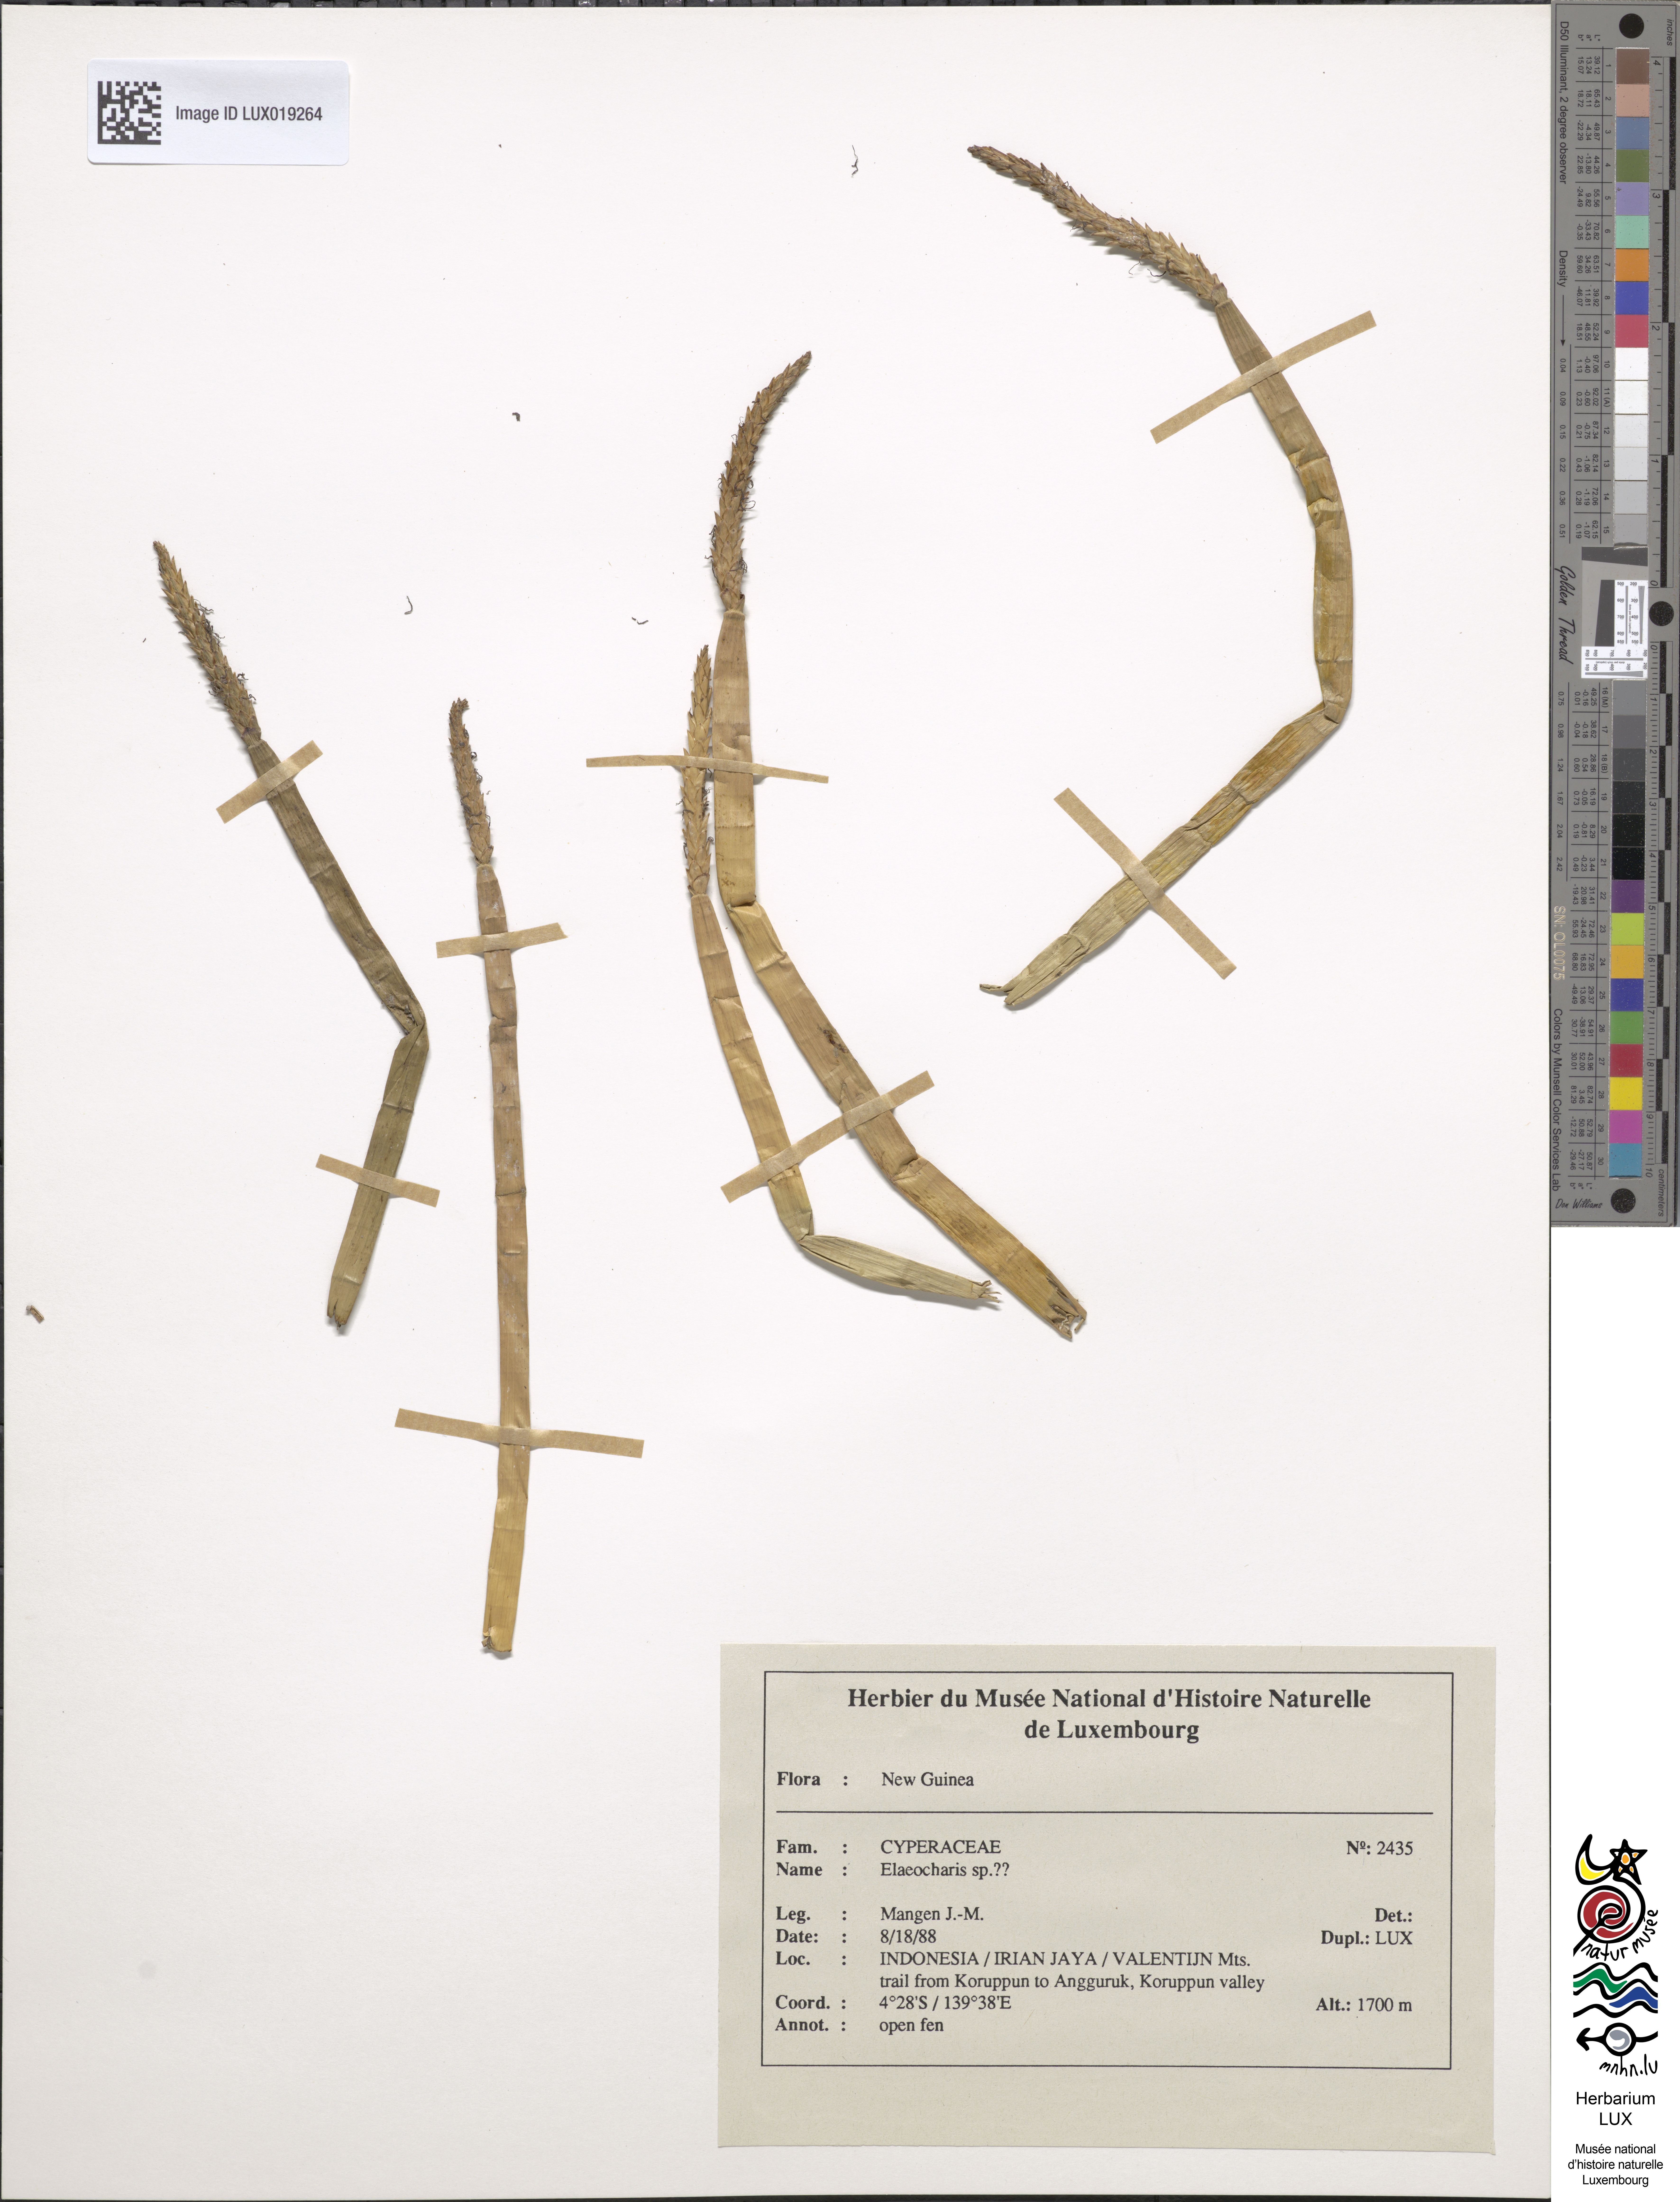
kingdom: Plantae
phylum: Tracheophyta
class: Liliopsida
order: Poales
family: Cyperaceae
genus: Eleocharis
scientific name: Eleocharis
